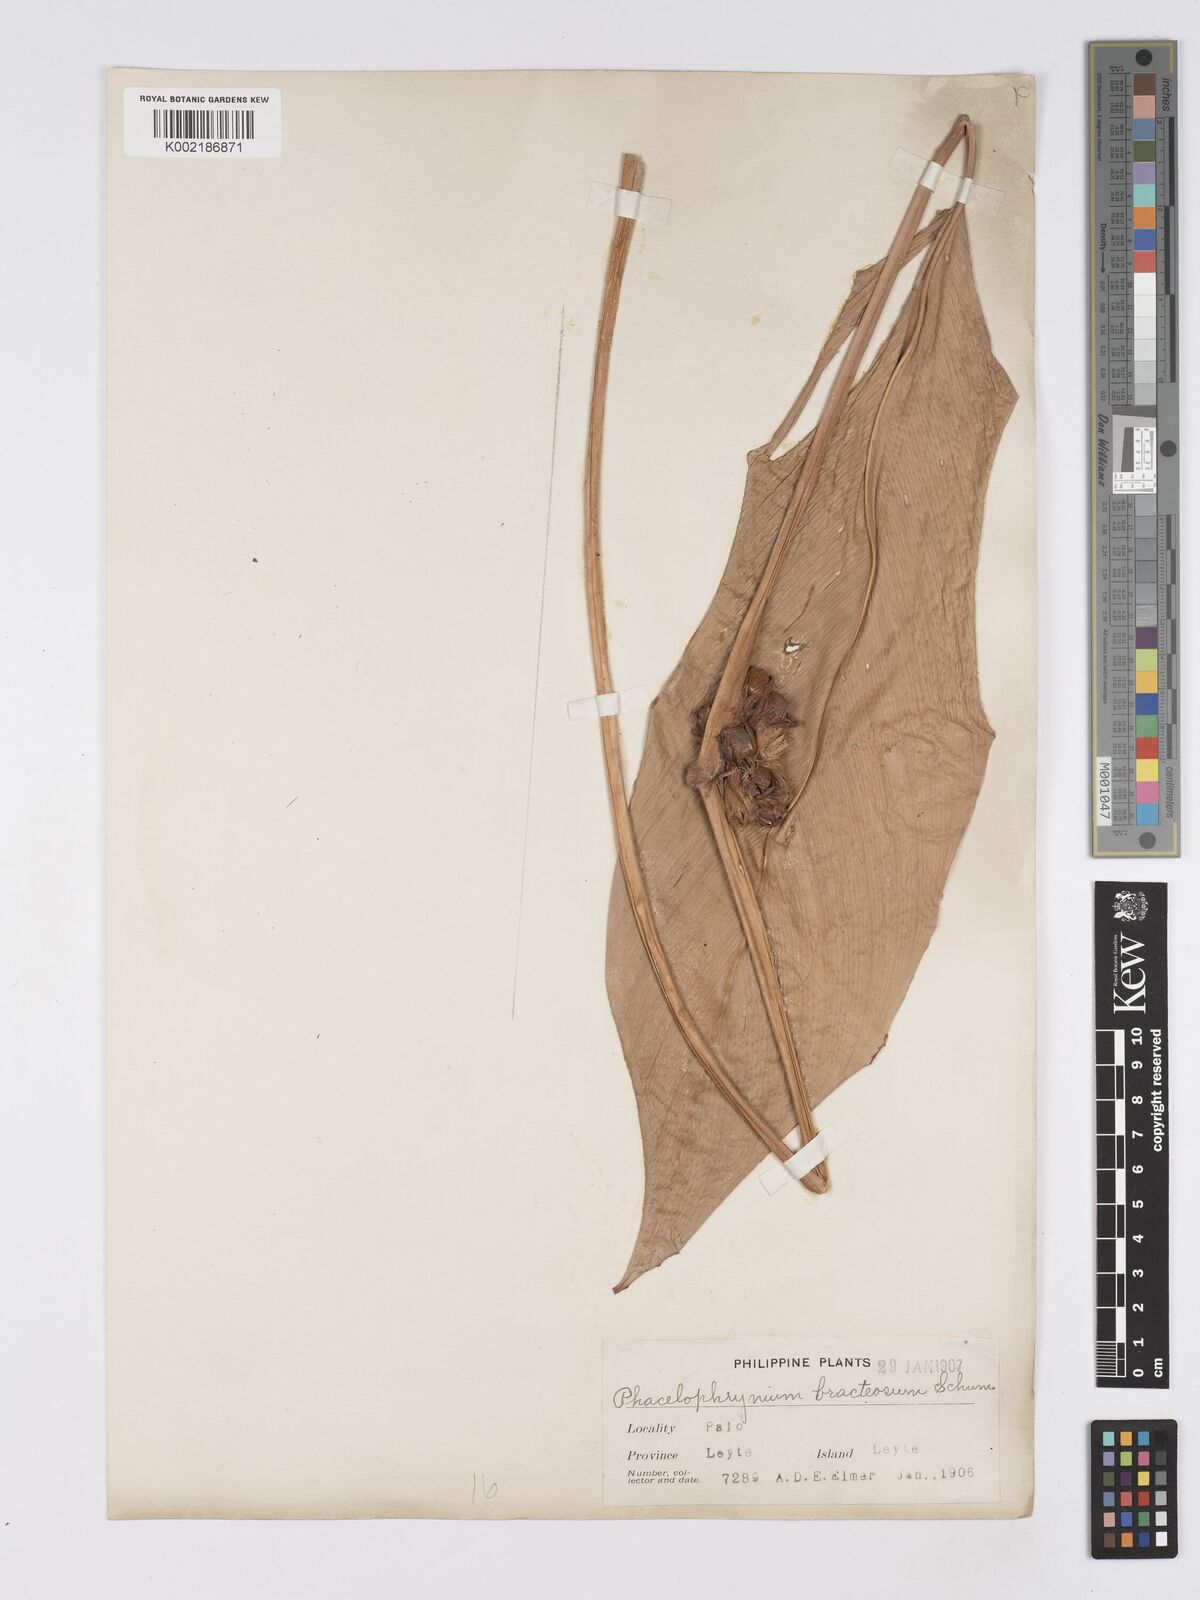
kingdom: Plantae
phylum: Tracheophyta
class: Liliopsida
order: Zingiberales
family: Marantaceae
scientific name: Marantaceae
